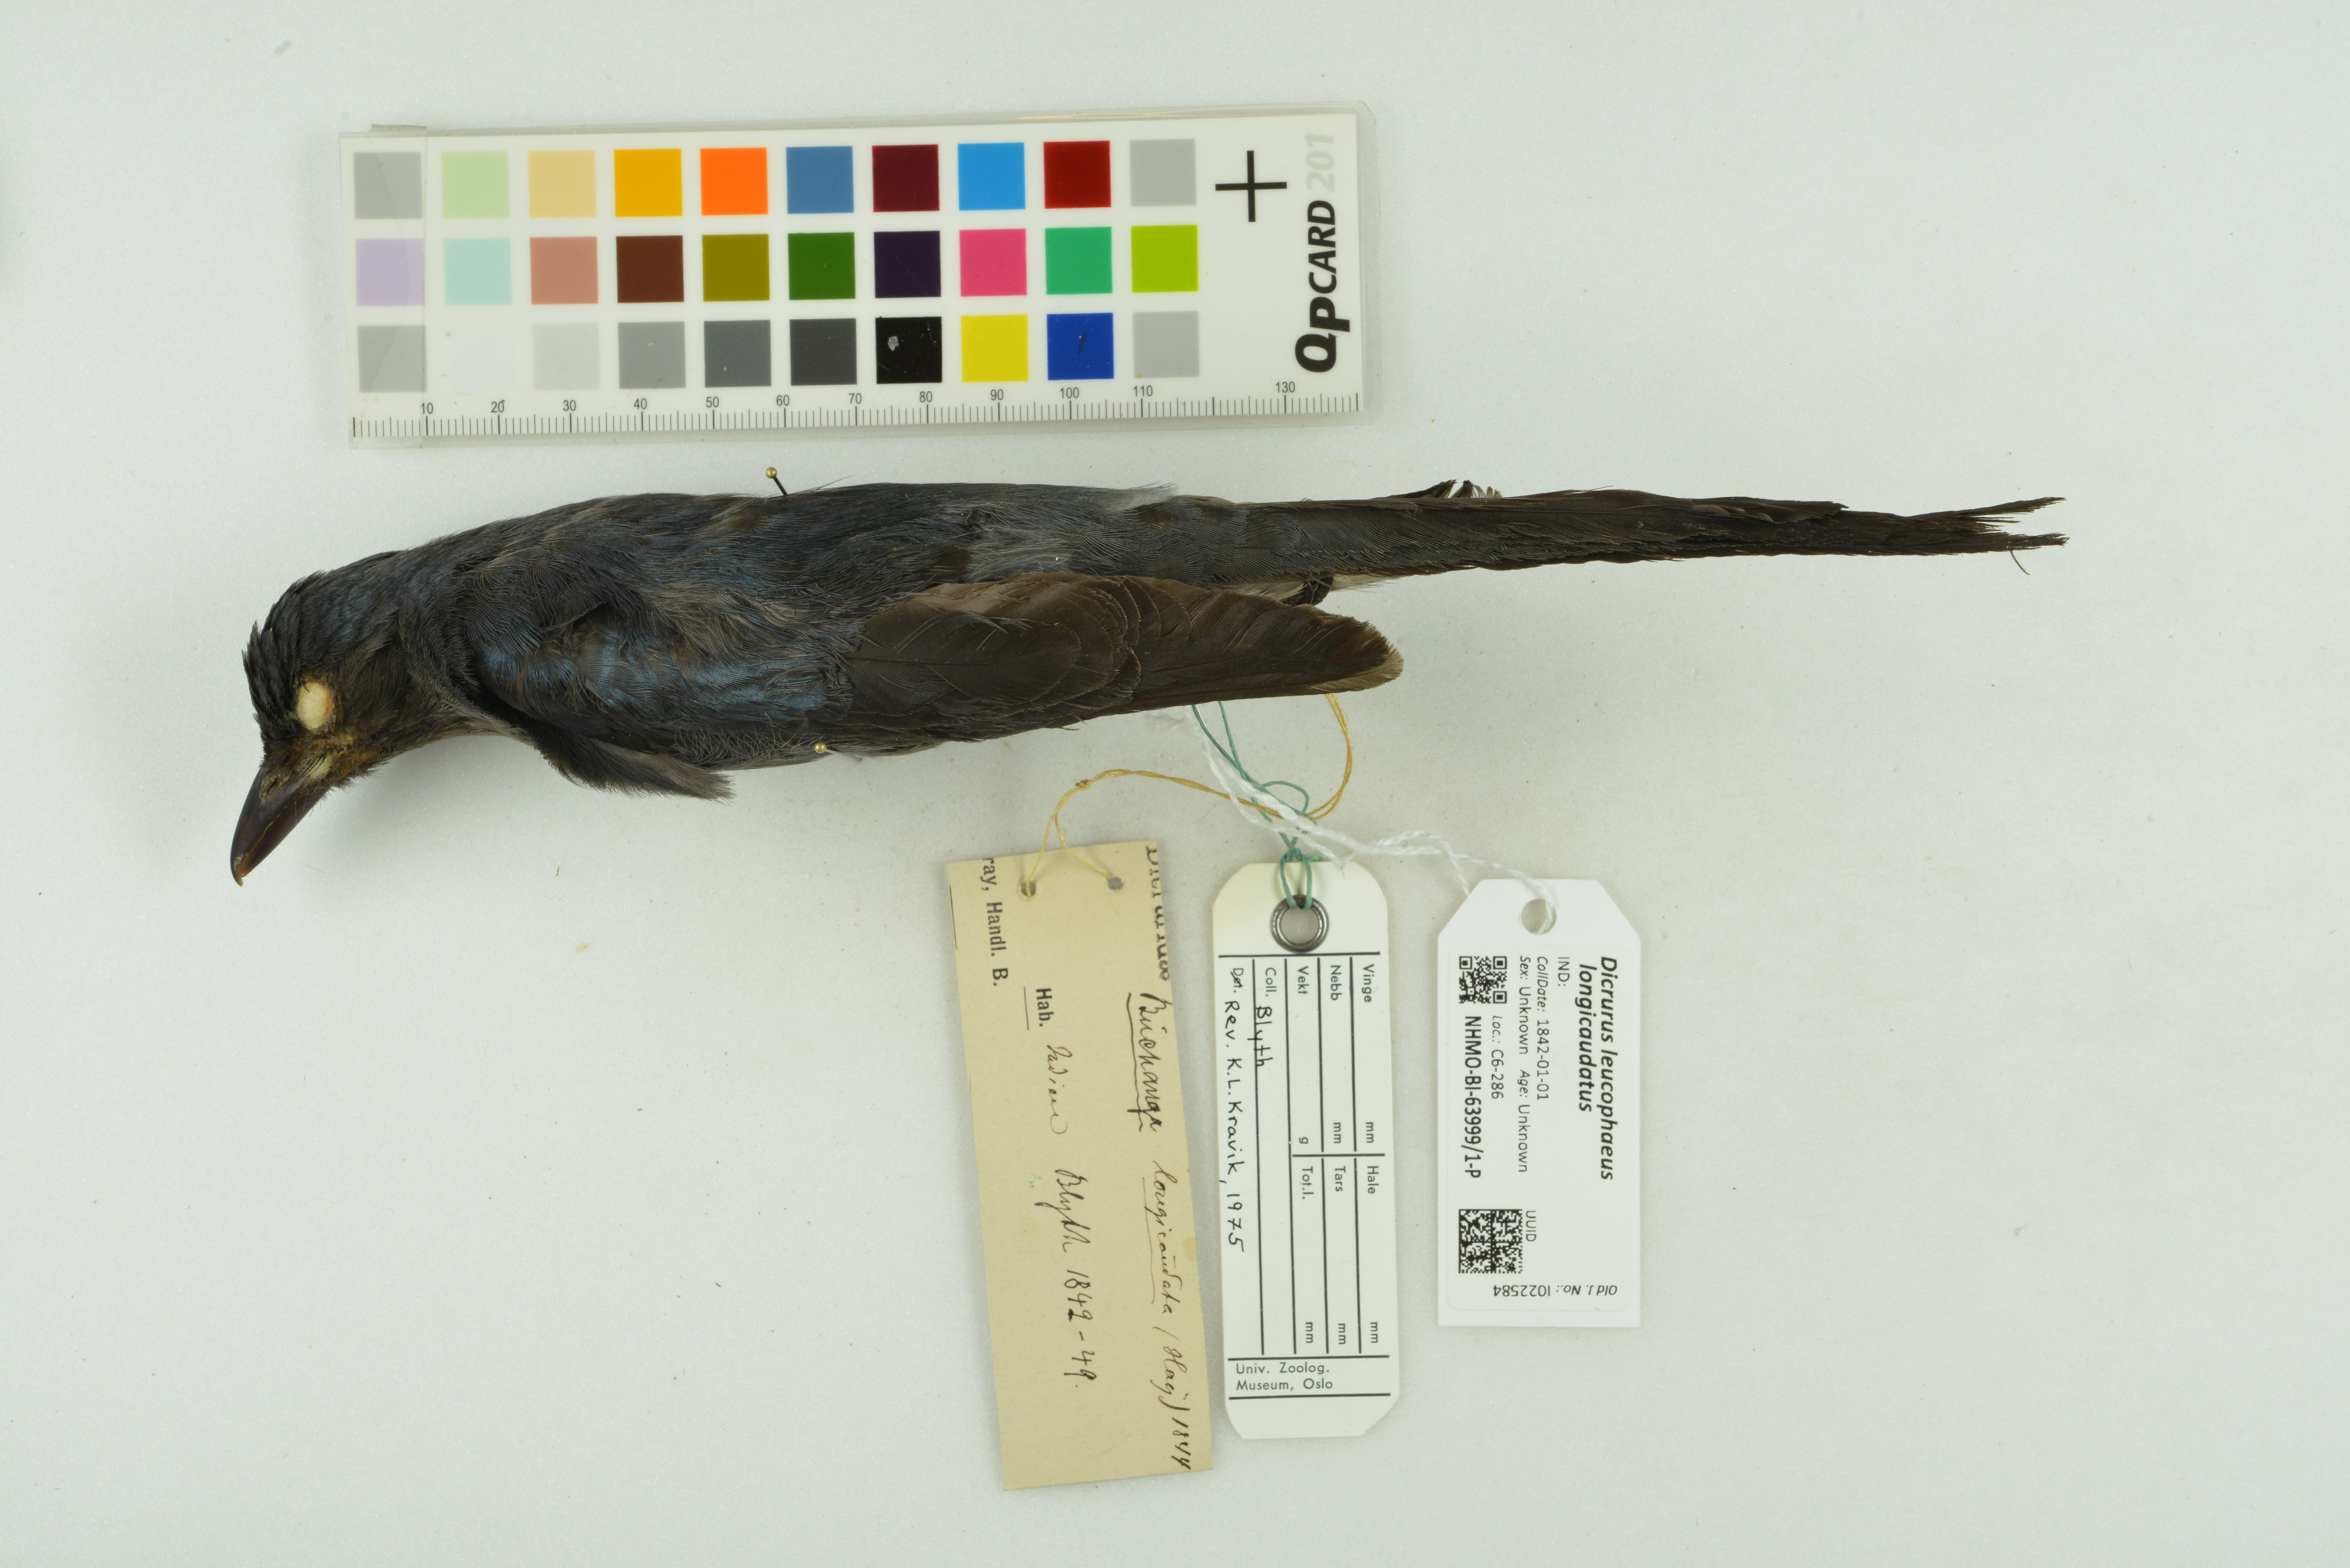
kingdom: Animalia
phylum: Chordata
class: Aves
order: Passeriformes
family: Dicruridae
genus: Dicrurus
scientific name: Dicrurus leucophaeus
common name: Ashy drongo
